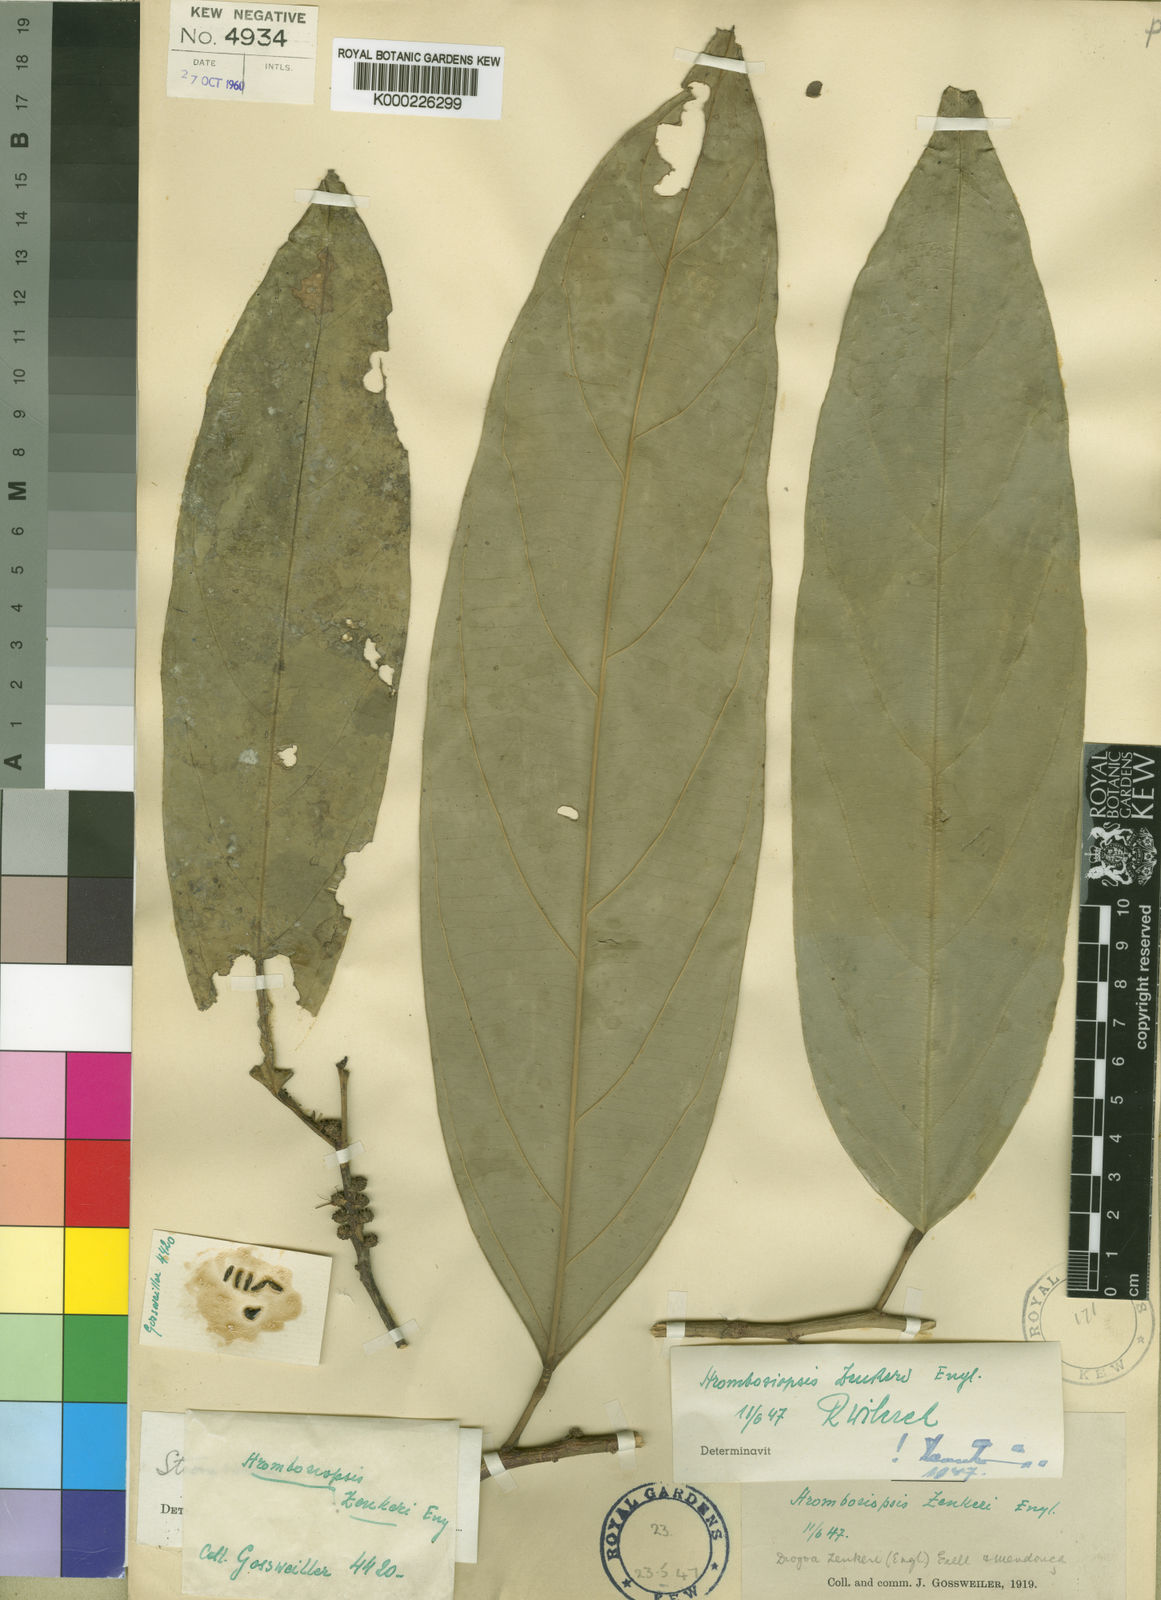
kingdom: Plantae
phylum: Tracheophyta
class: Magnoliopsida
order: Santalales
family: Strombosiaceae
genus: Diogoa
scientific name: Diogoa
